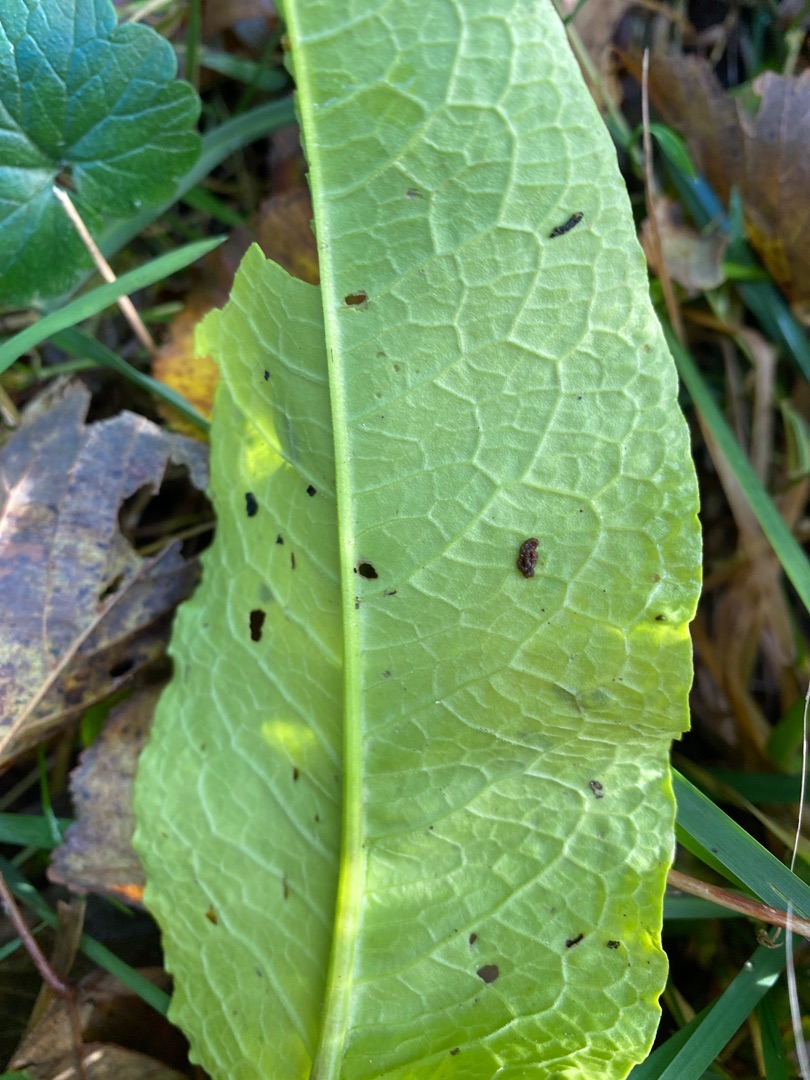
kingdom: Plantae
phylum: Tracheophyta
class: Magnoliopsida
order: Caryophyllales
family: Polygonaceae
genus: Rumex
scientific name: Rumex obtusifolius
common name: Butbladet skræppe
